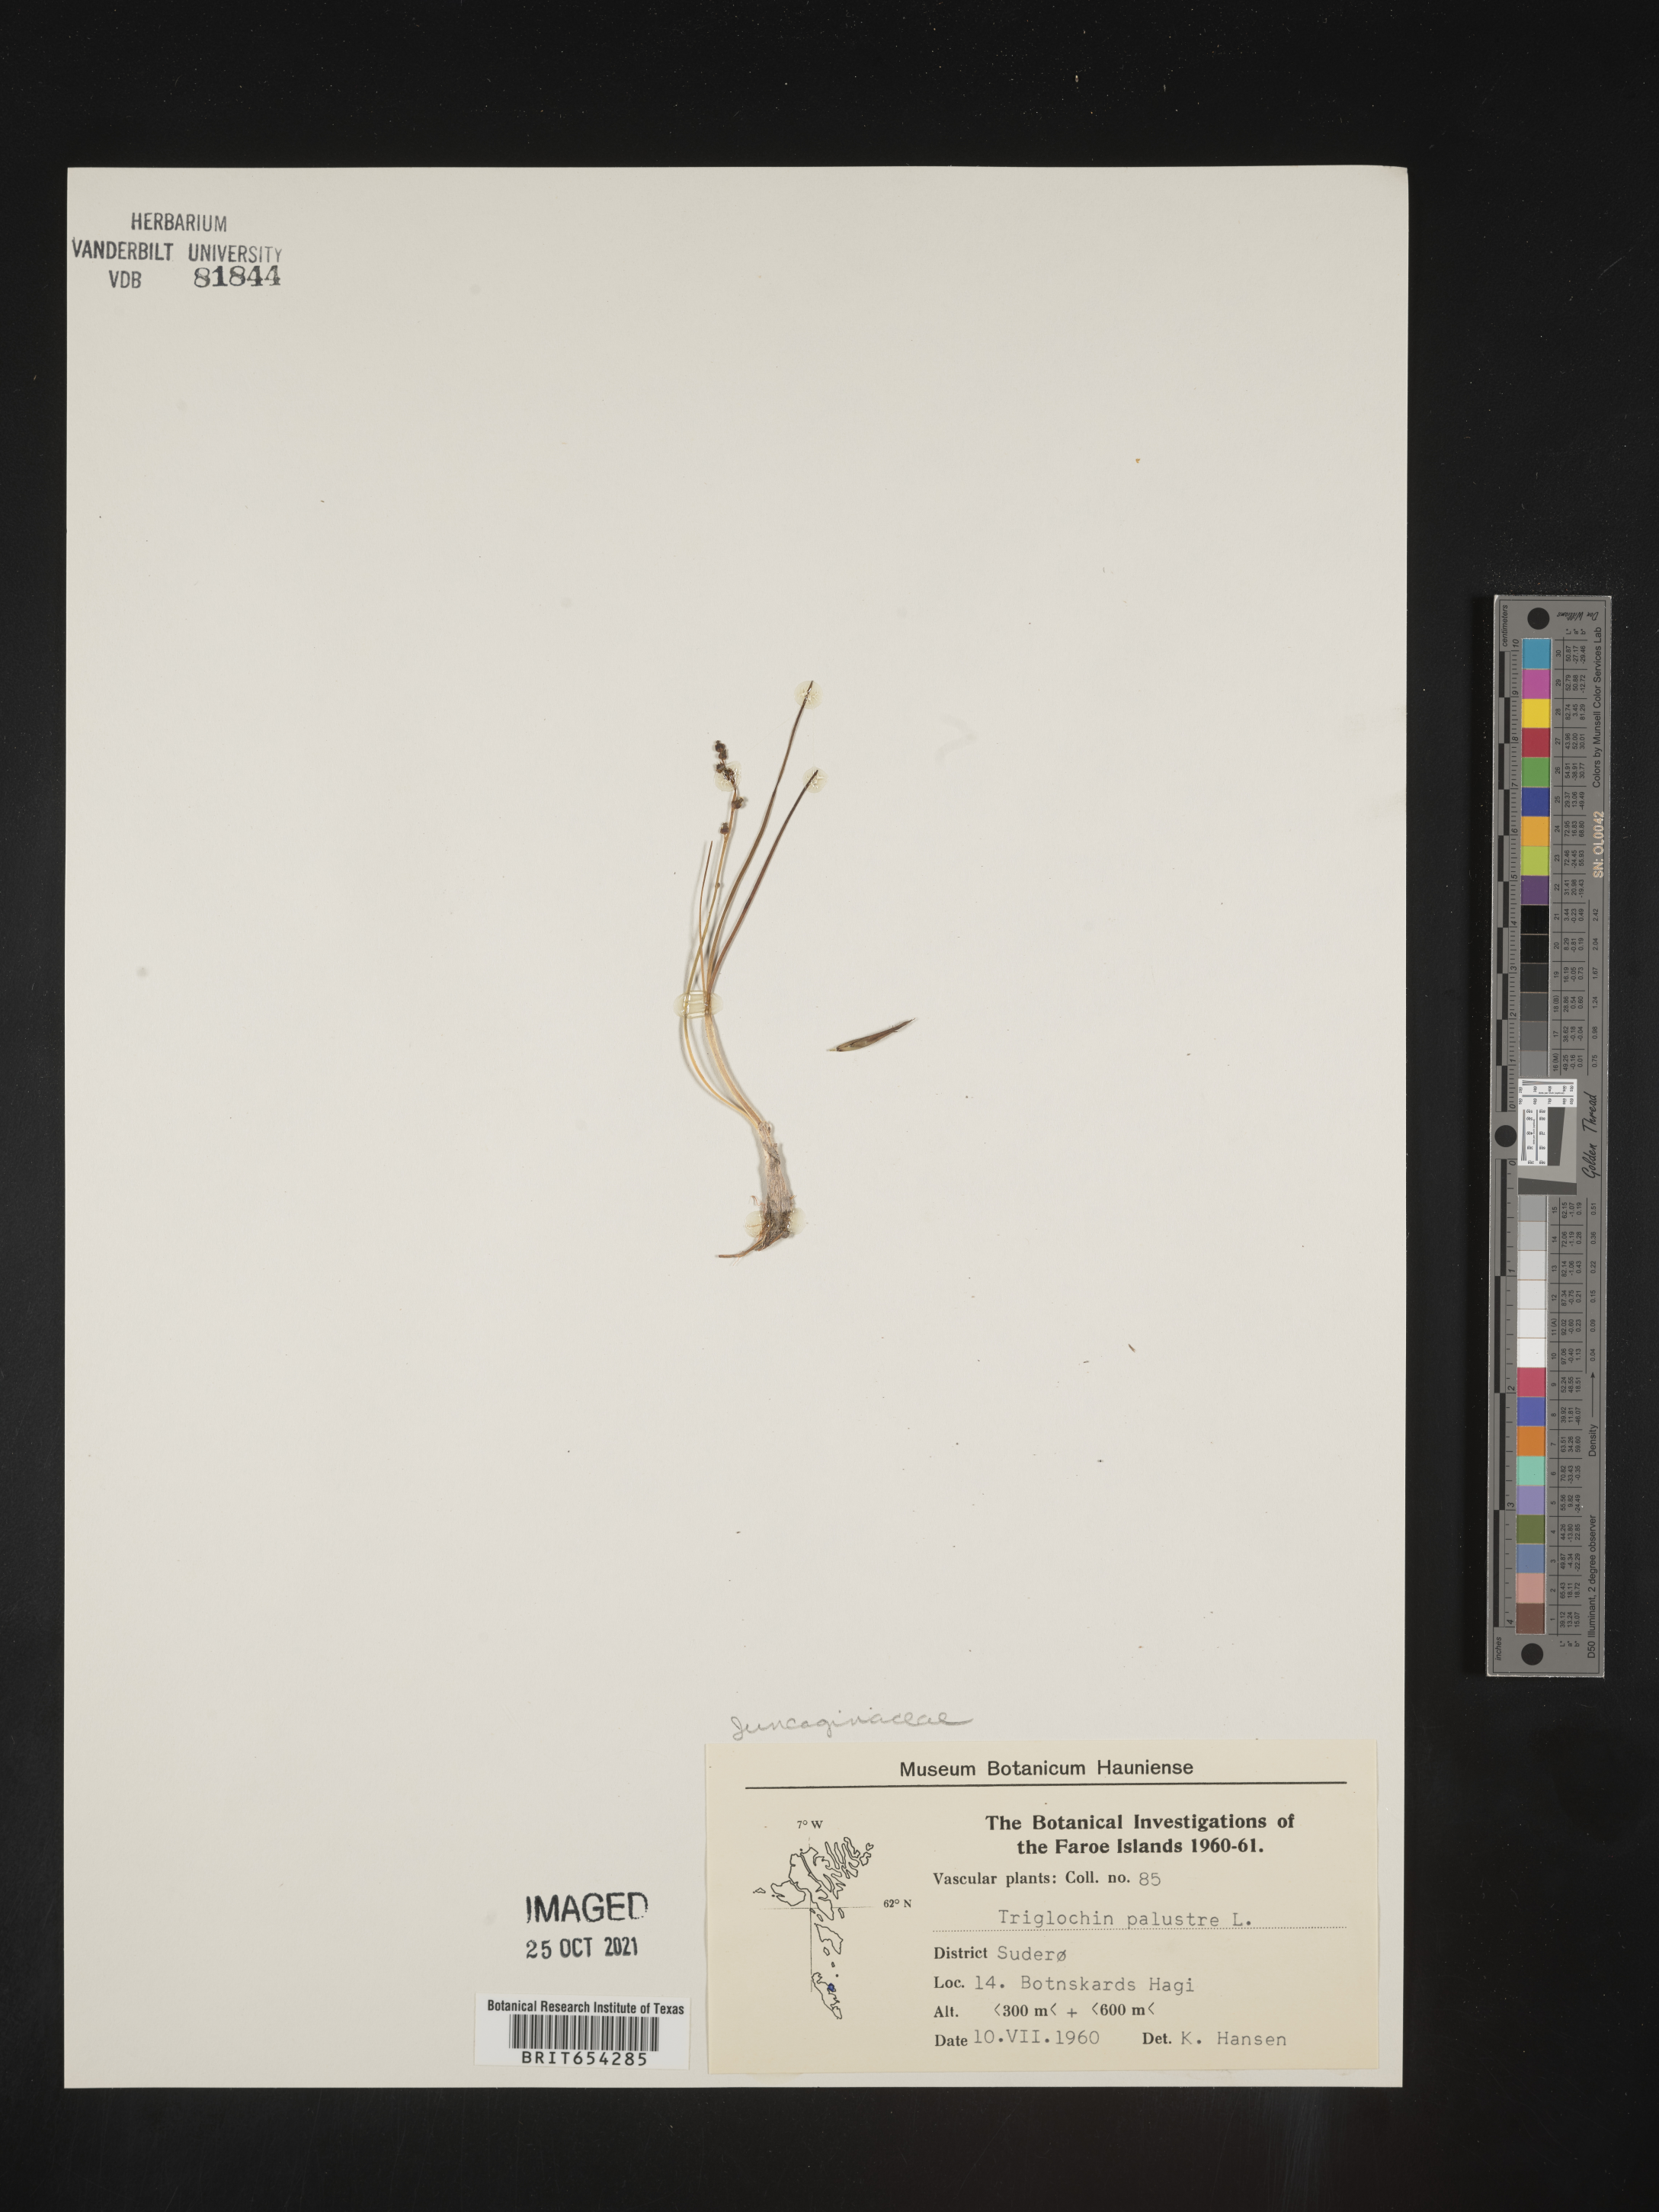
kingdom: Plantae
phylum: Tracheophyta
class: Liliopsida
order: Alismatales
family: Juncaginaceae
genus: Triglochin
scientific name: Triglochin
